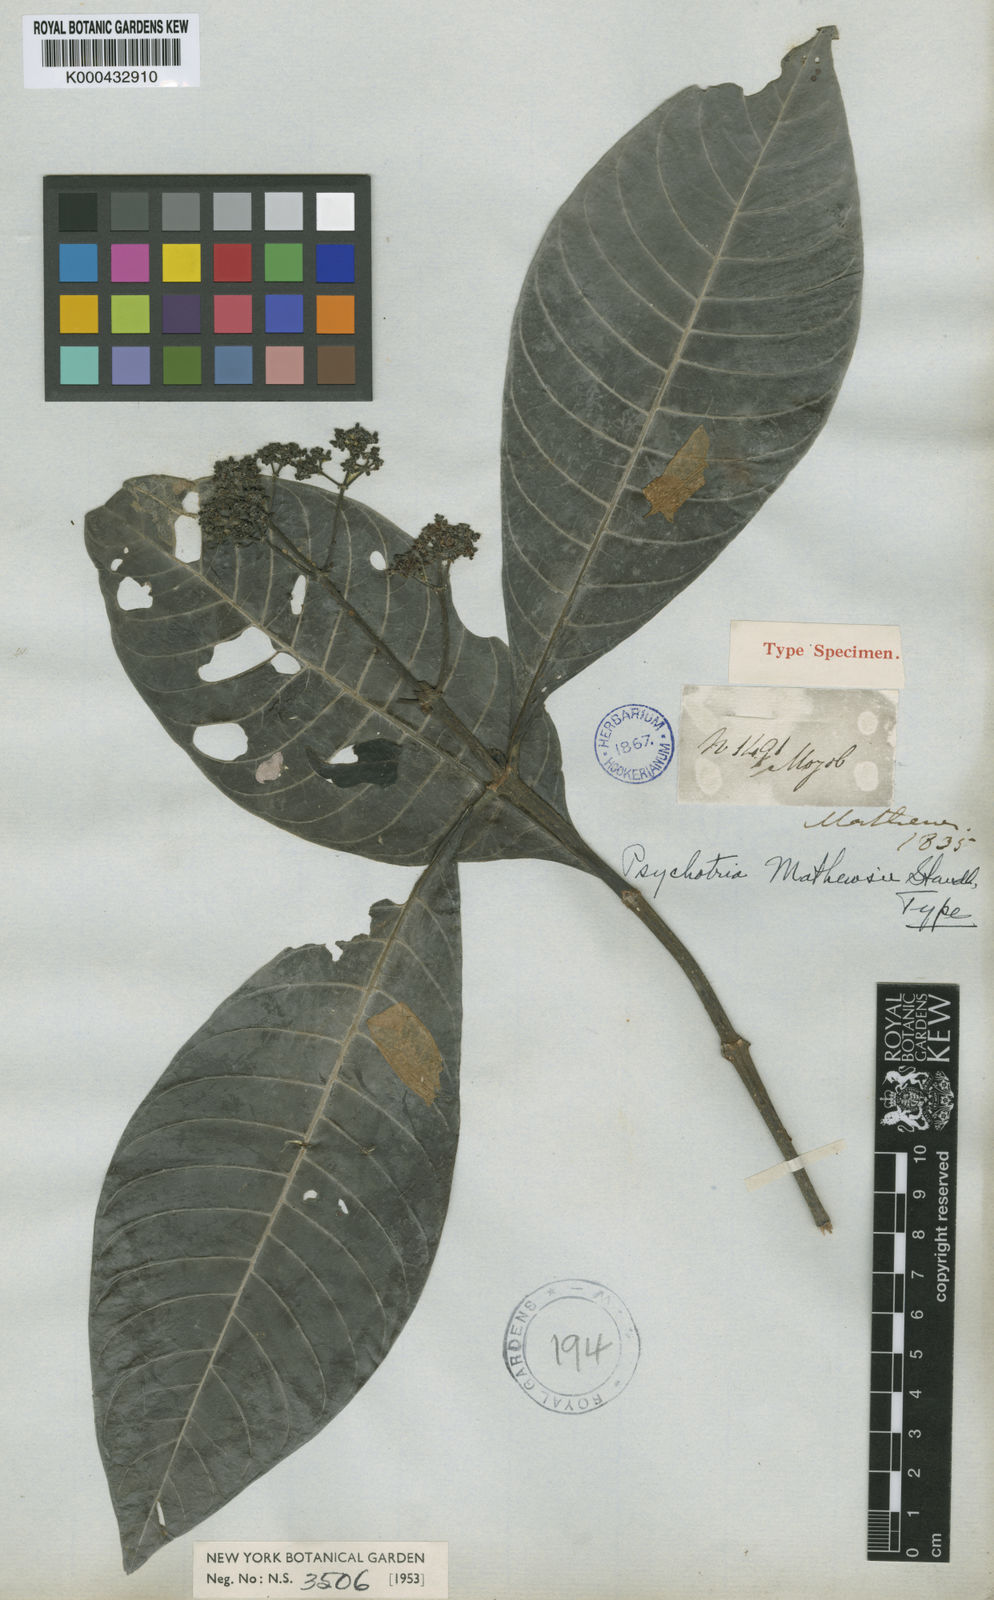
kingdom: Plantae
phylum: Tracheophyta
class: Magnoliopsida
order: Gentianales
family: Rubiaceae
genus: Psychotria
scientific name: Psychotria guianensis
